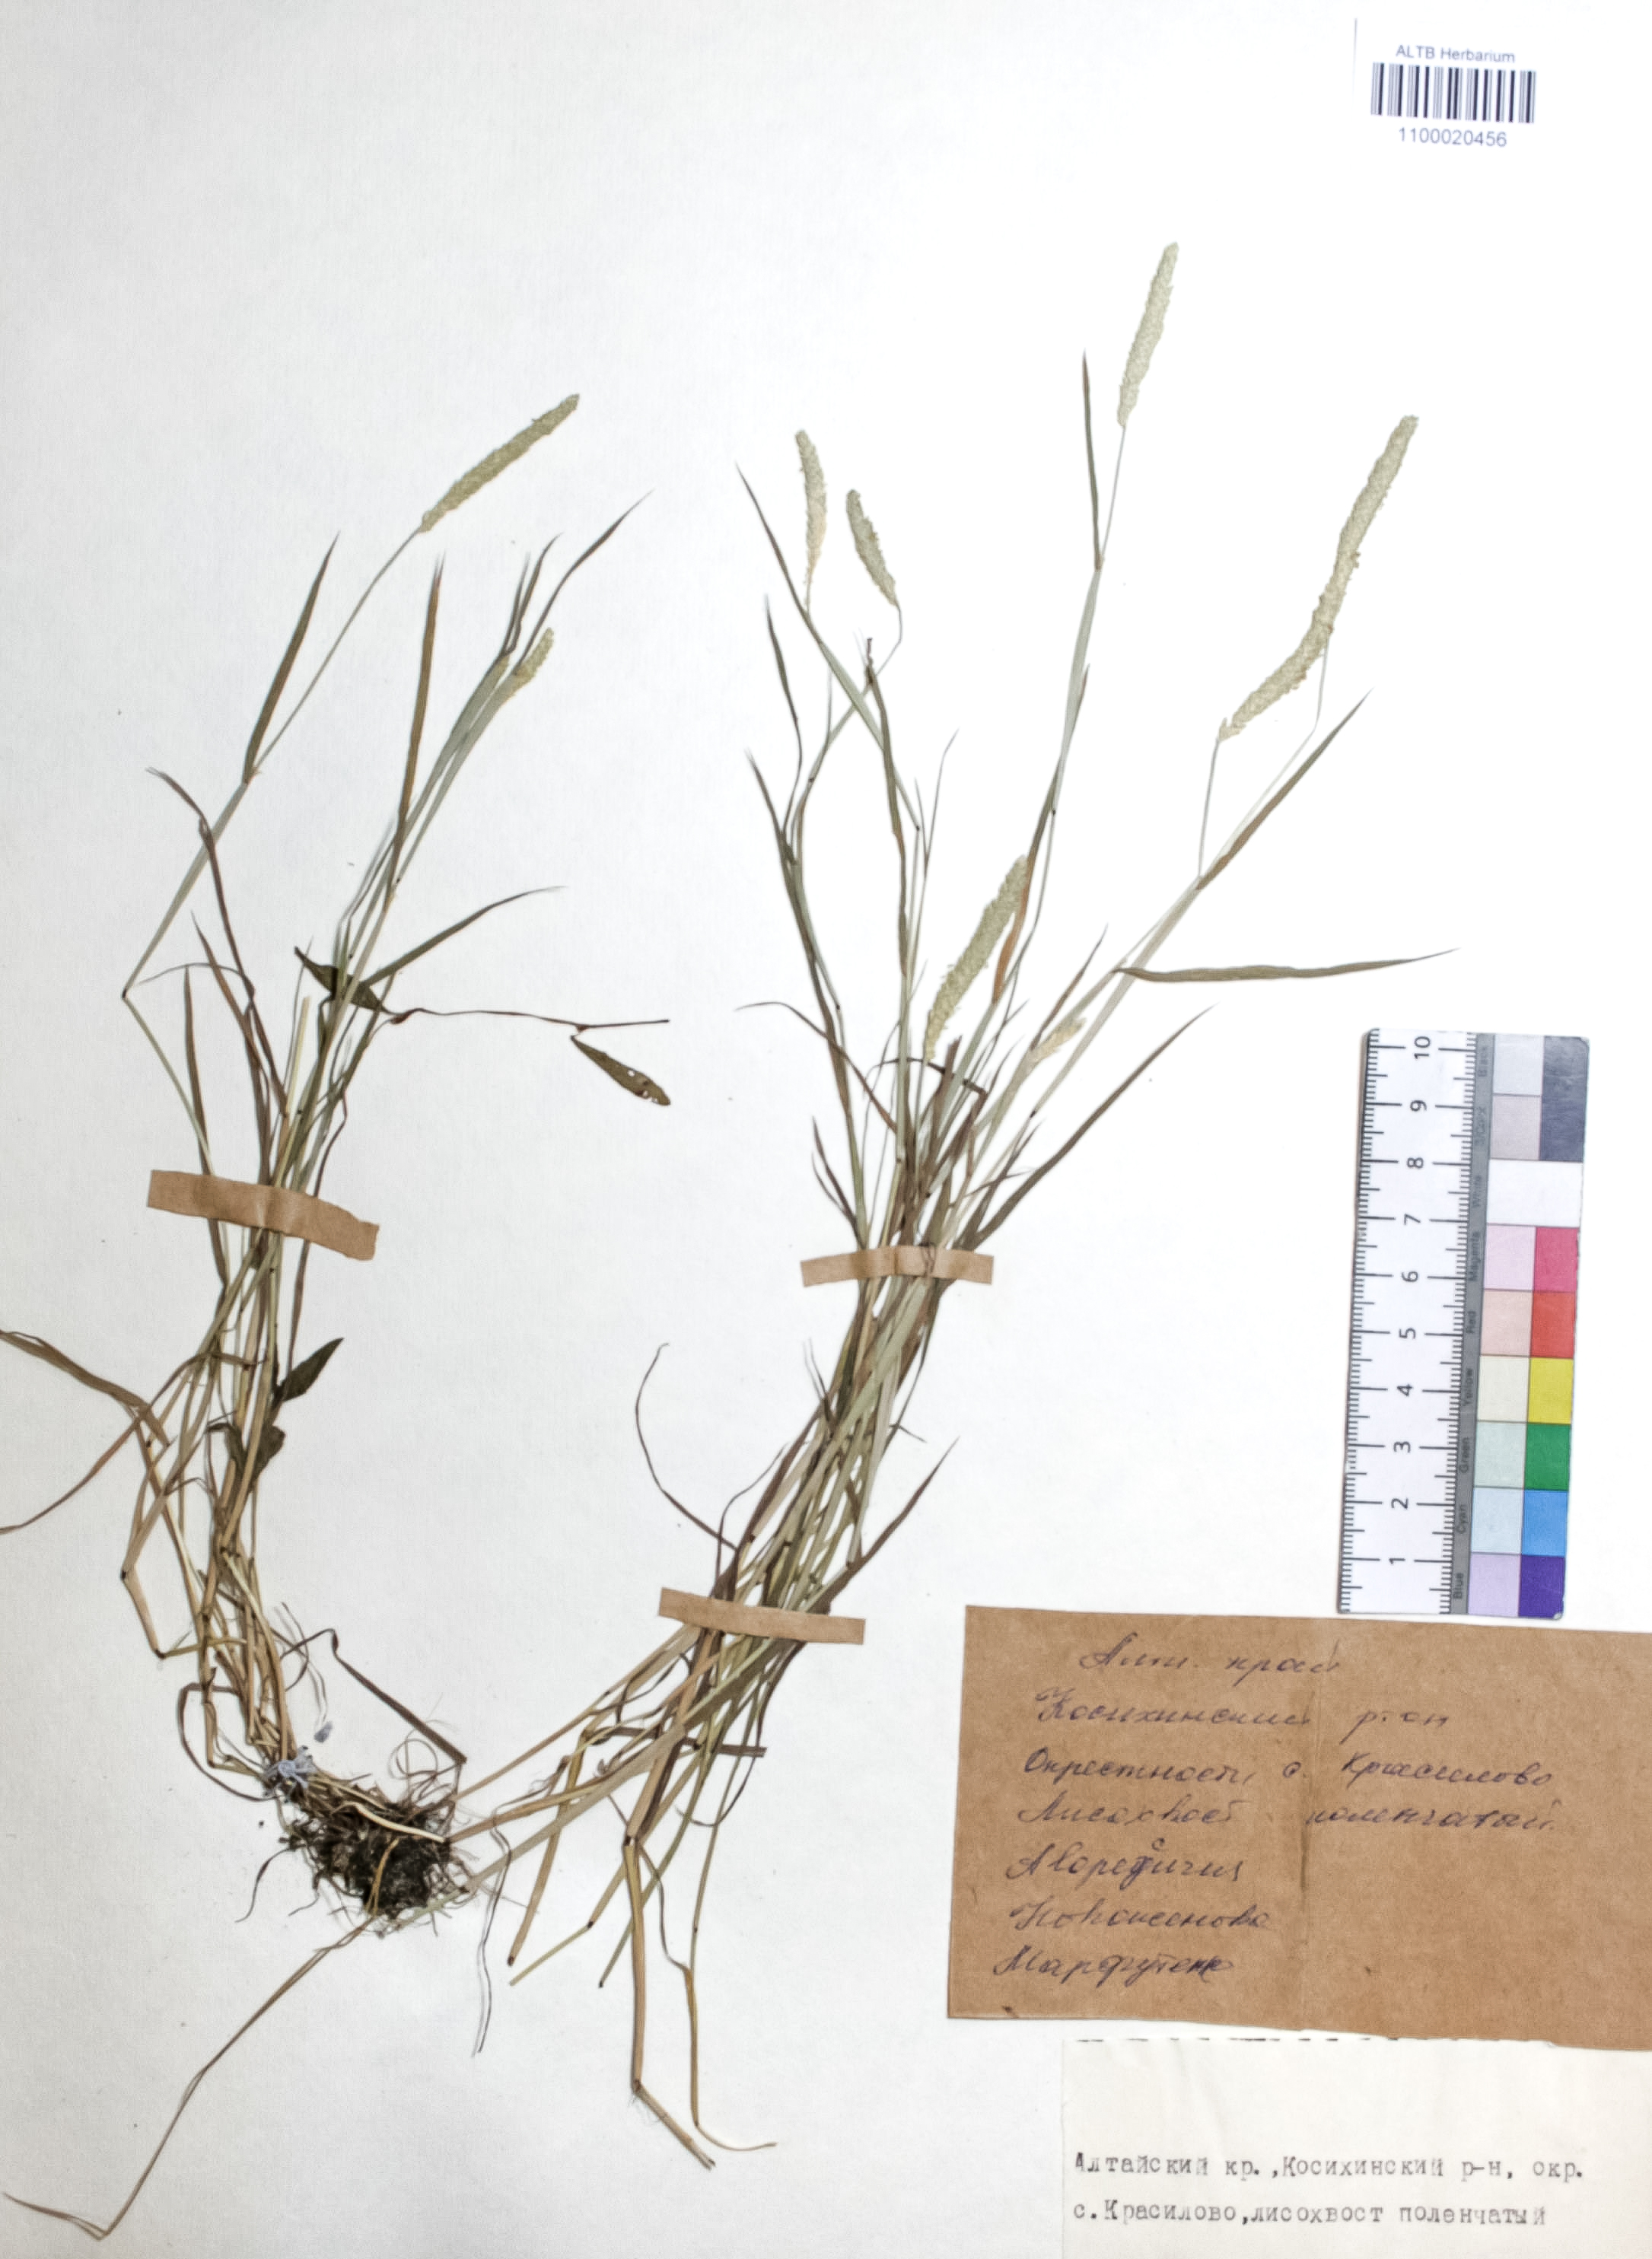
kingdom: Plantae
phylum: Tracheophyta
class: Liliopsida
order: Poales
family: Poaceae
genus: Alopecurus
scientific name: Alopecurus aequalis
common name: Orange foxtail
